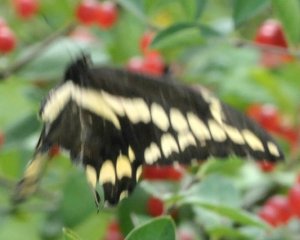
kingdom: Animalia
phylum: Arthropoda
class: Insecta
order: Lepidoptera
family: Papilionidae
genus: Papilio
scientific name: Papilio cresphontes
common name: Eastern Giant Swallowtail
